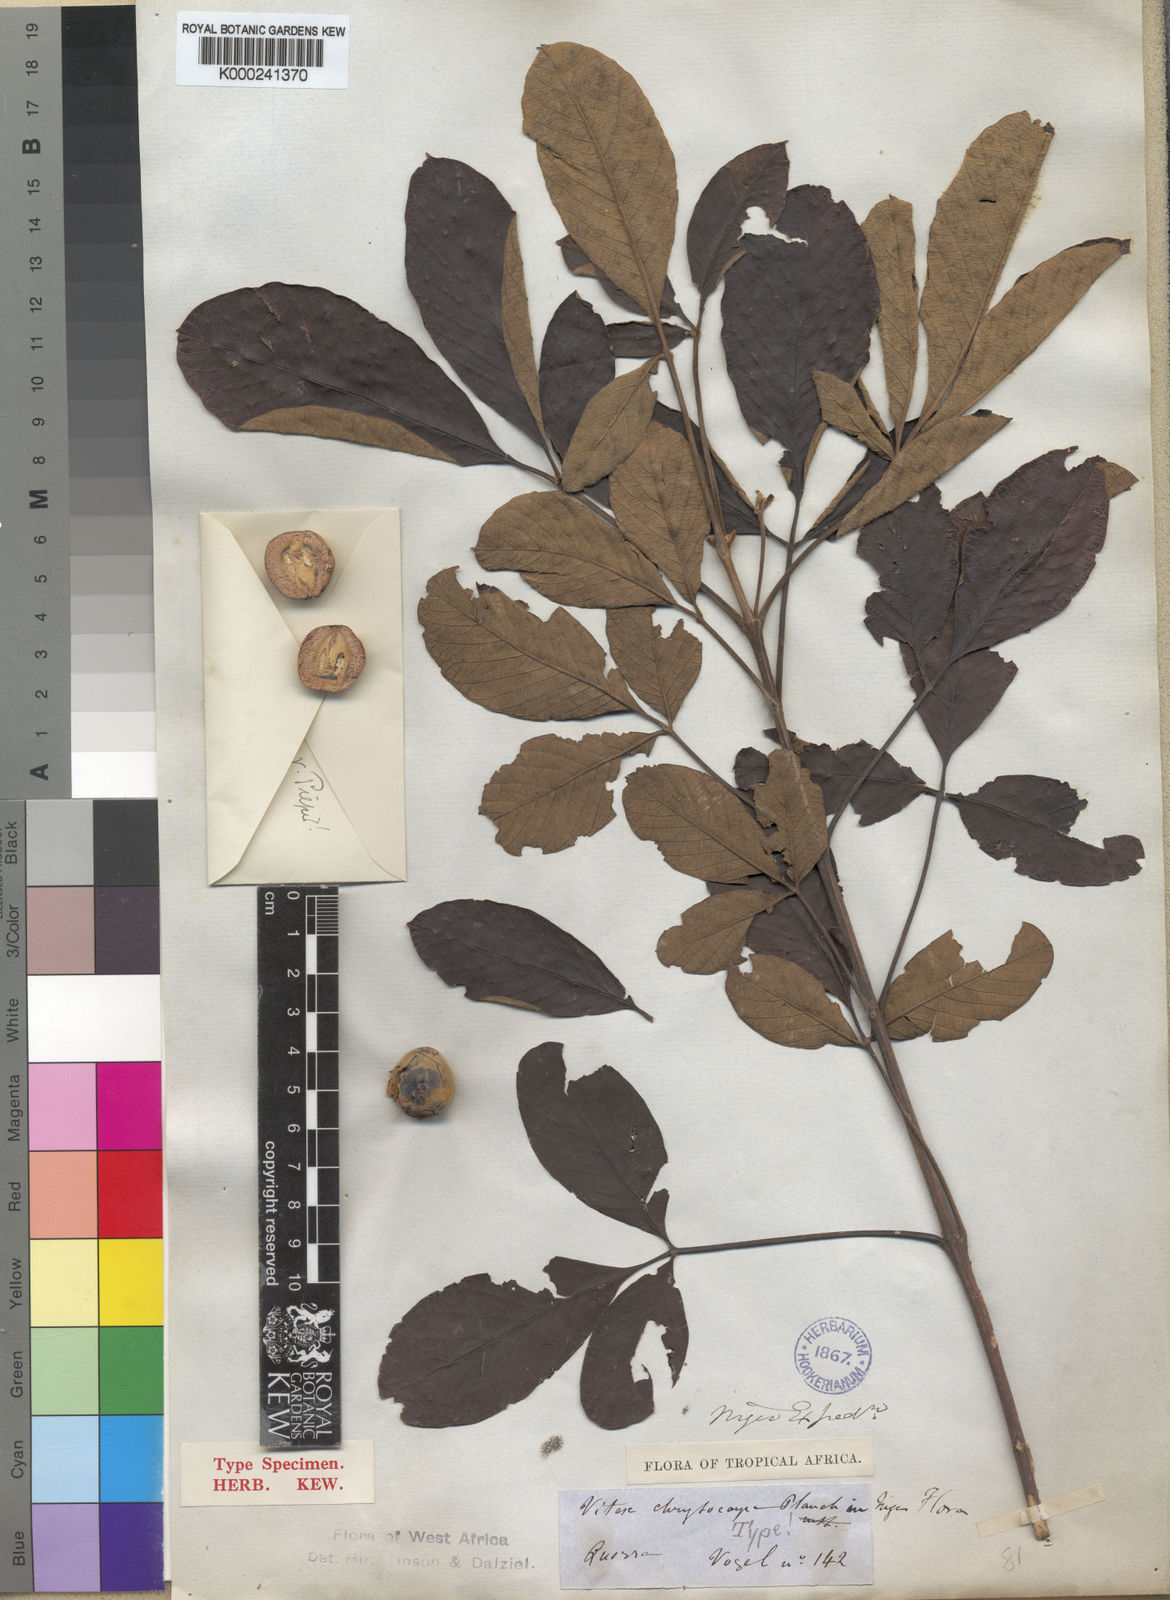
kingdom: Plantae
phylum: Tracheophyta
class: Magnoliopsida
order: Lamiales
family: Lamiaceae
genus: Vitex
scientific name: Vitex
